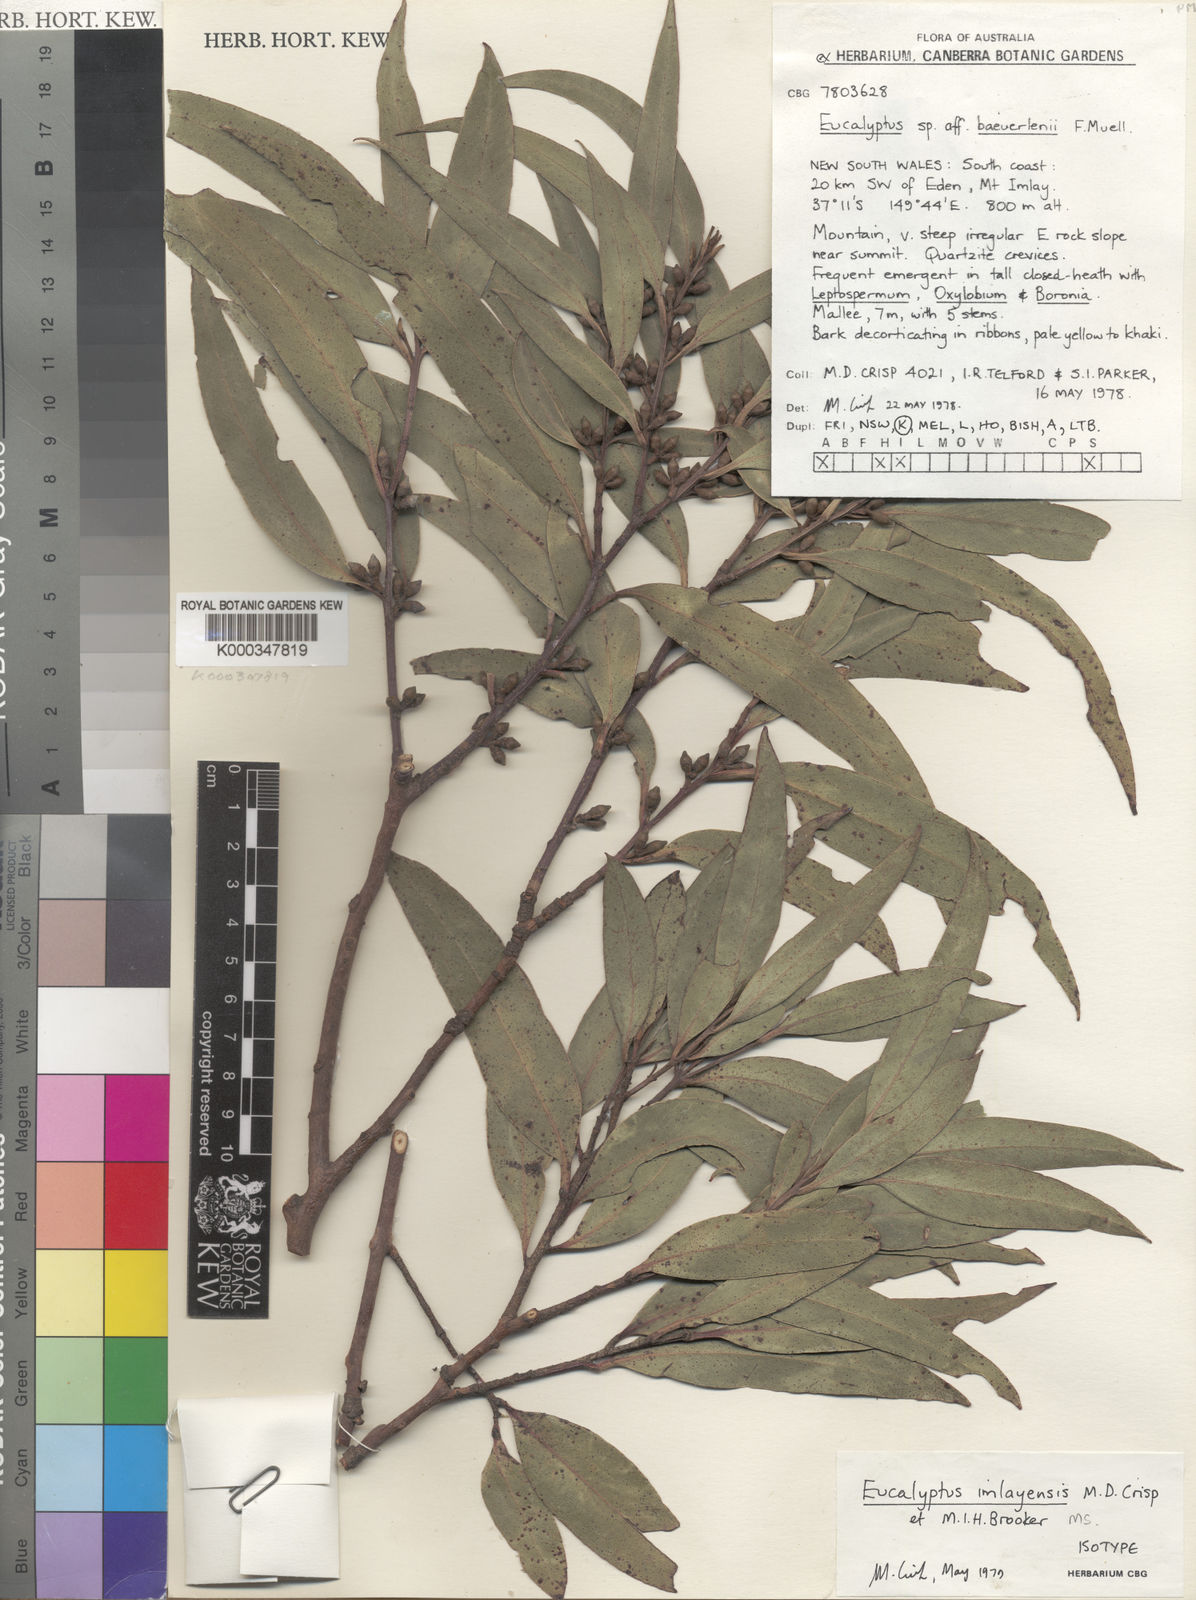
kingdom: Plantae
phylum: Tracheophyta
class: Magnoliopsida
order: Myrtales
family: Myrtaceae
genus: Eucalyptus
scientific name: Eucalyptus imlayensis
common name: Imlay mallee
